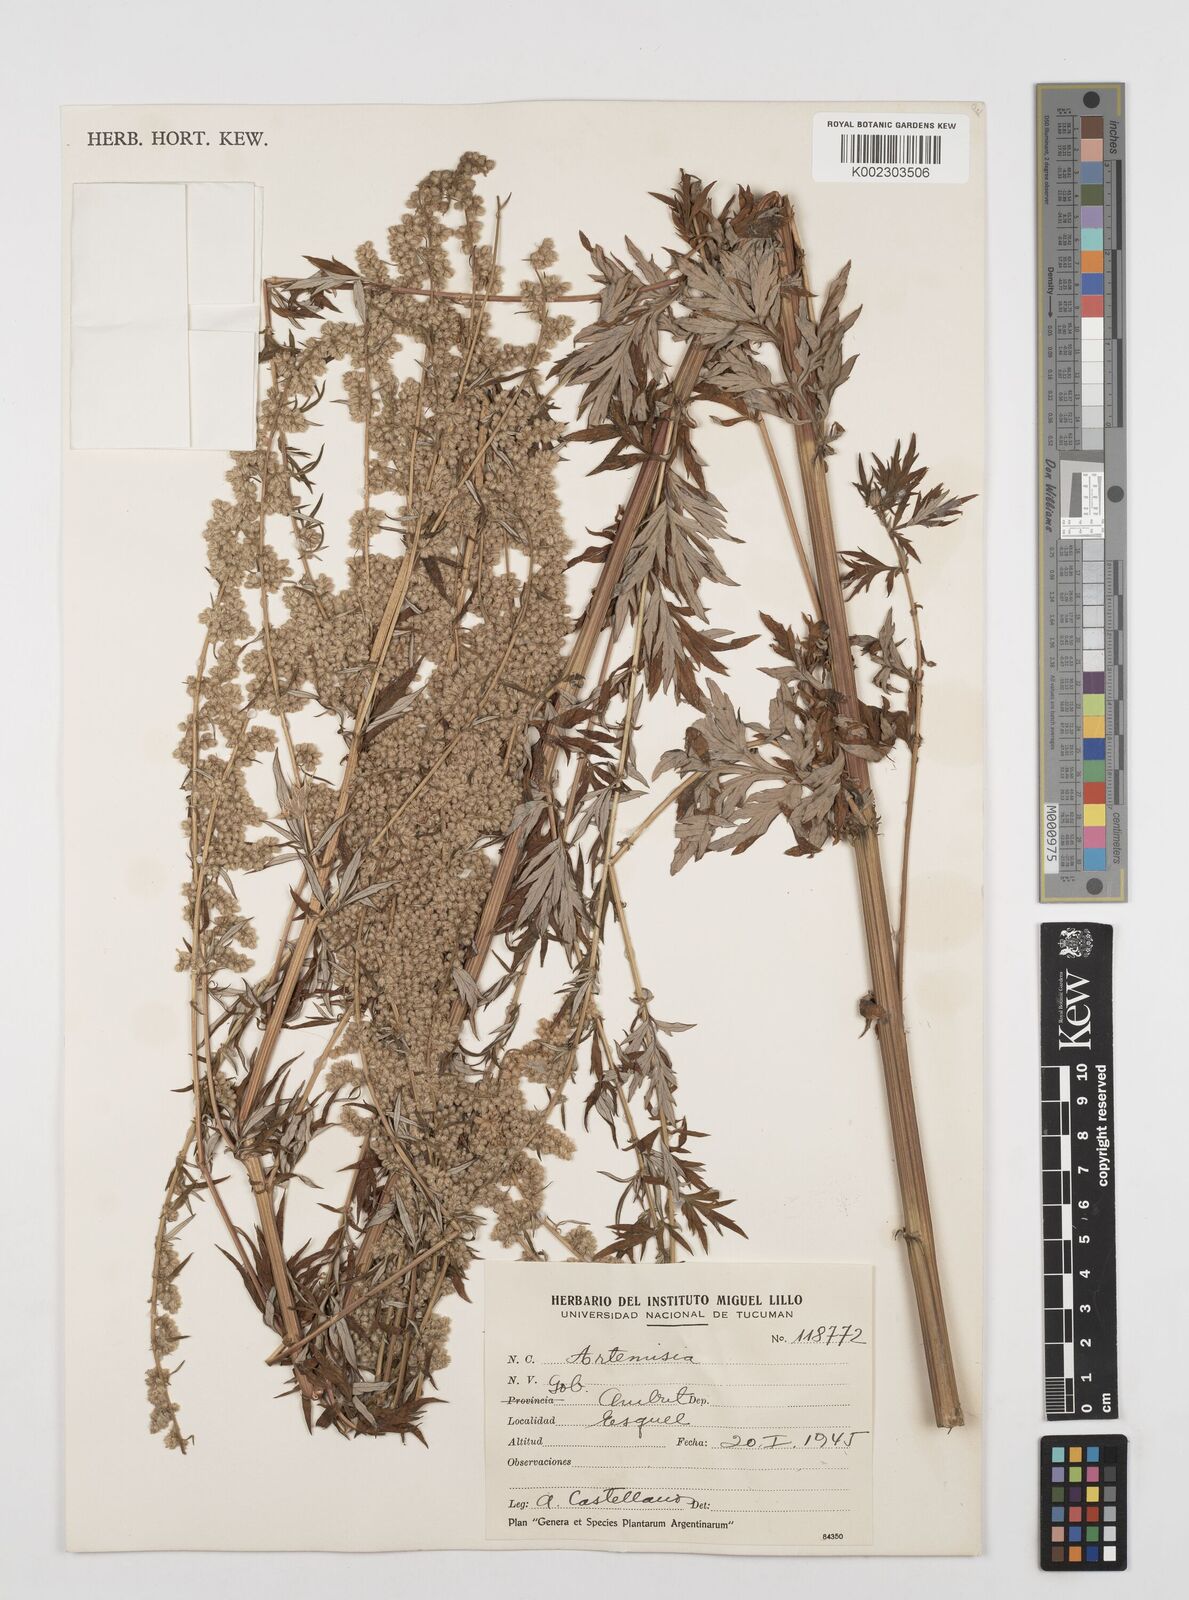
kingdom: Plantae
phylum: Tracheophyta
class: Magnoliopsida
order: Asterales
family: Asteraceae
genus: Artemisia
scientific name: Artemisia
